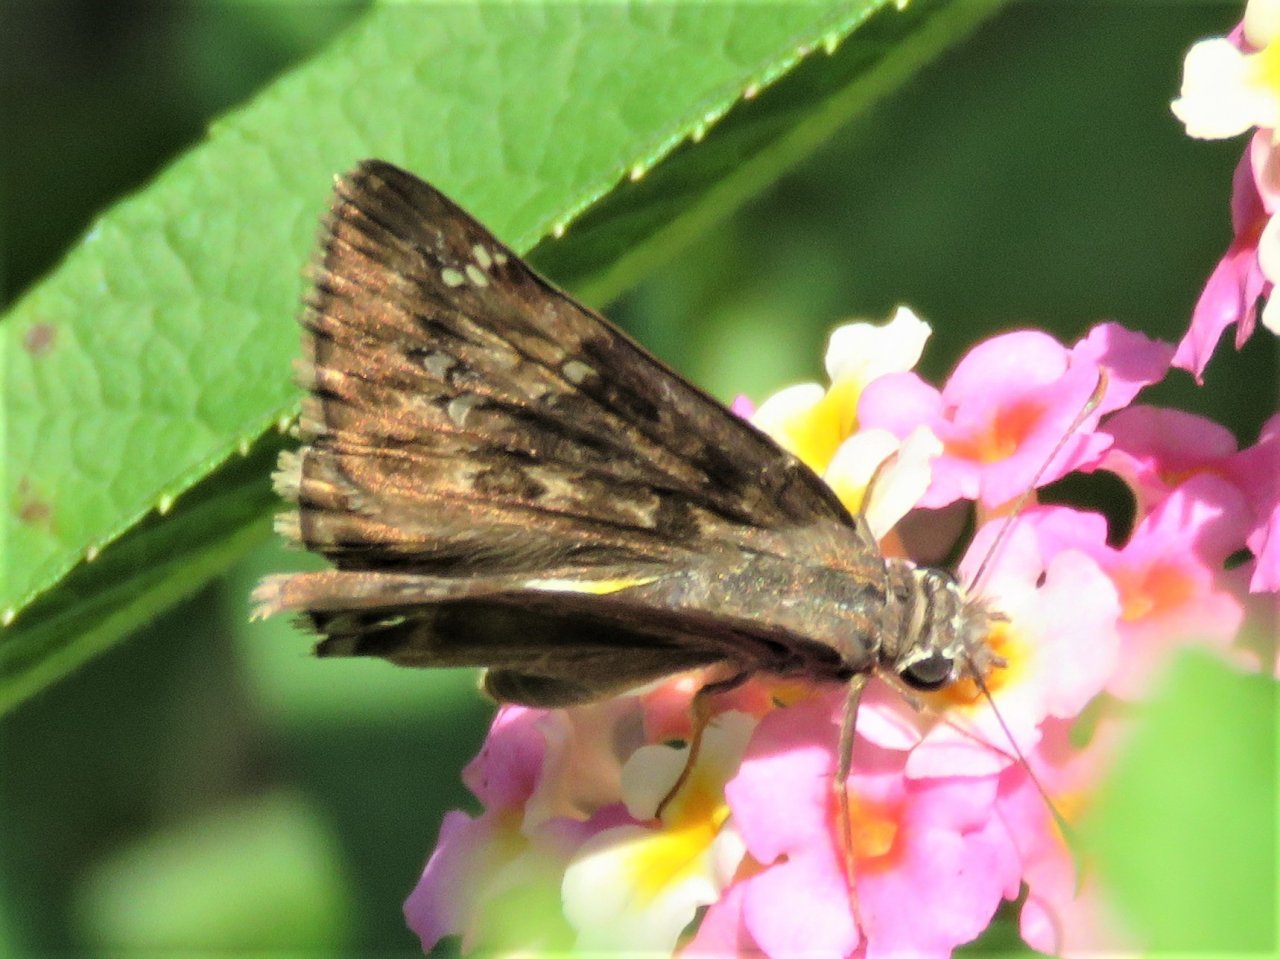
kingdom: Animalia
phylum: Arthropoda
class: Insecta
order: Lepidoptera
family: Hesperiidae
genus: Lon
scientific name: Lon zabulon
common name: Zabulon Skipper
